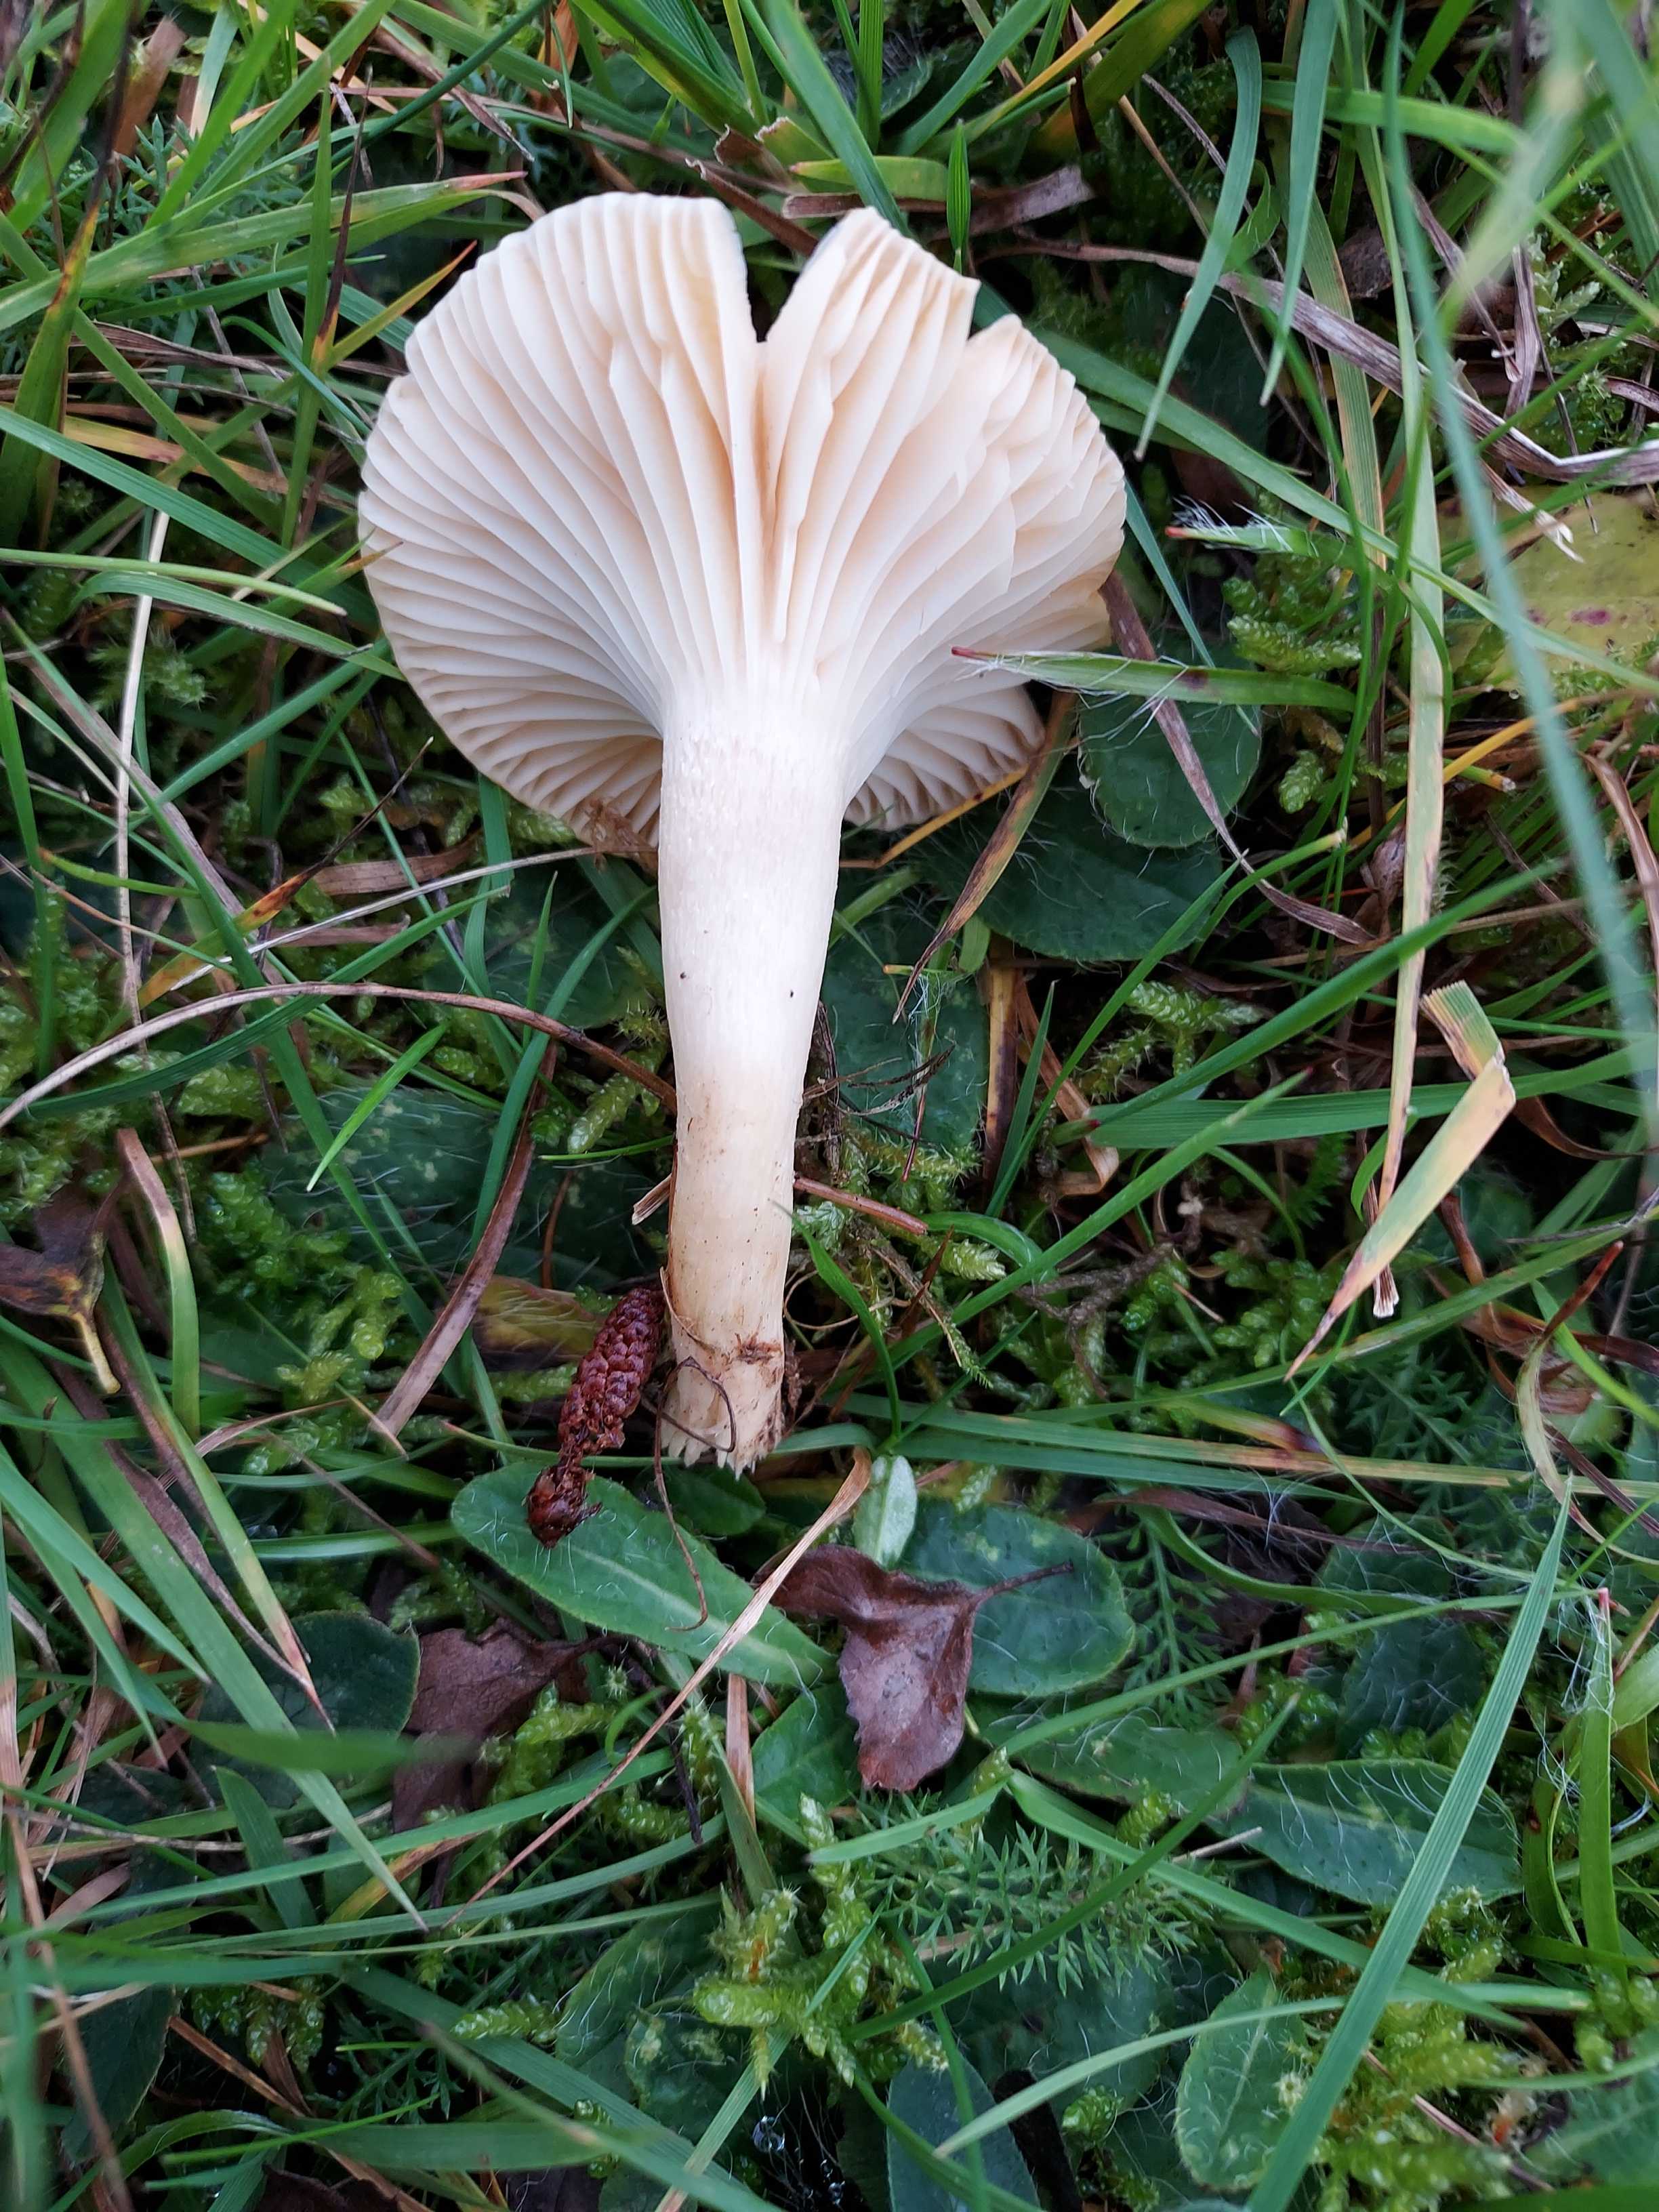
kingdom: Fungi
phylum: Basidiomycota
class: Agaricomycetes
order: Agaricales
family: Hygrophoraceae
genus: Cuphophyllus
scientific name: Cuphophyllus pratensis
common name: eng-vokshat
